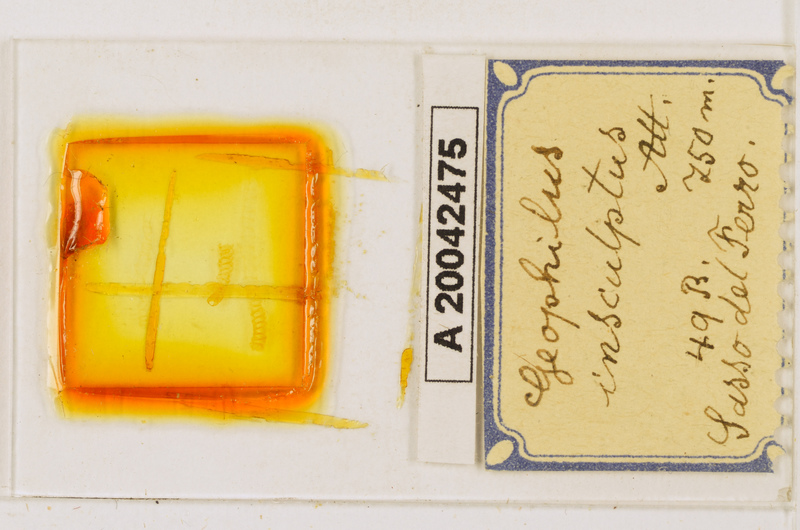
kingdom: Animalia
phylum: Arthropoda
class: Chilopoda
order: Geophilomorpha
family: Geophilidae
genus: Geophilus
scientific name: Geophilus insculptus
